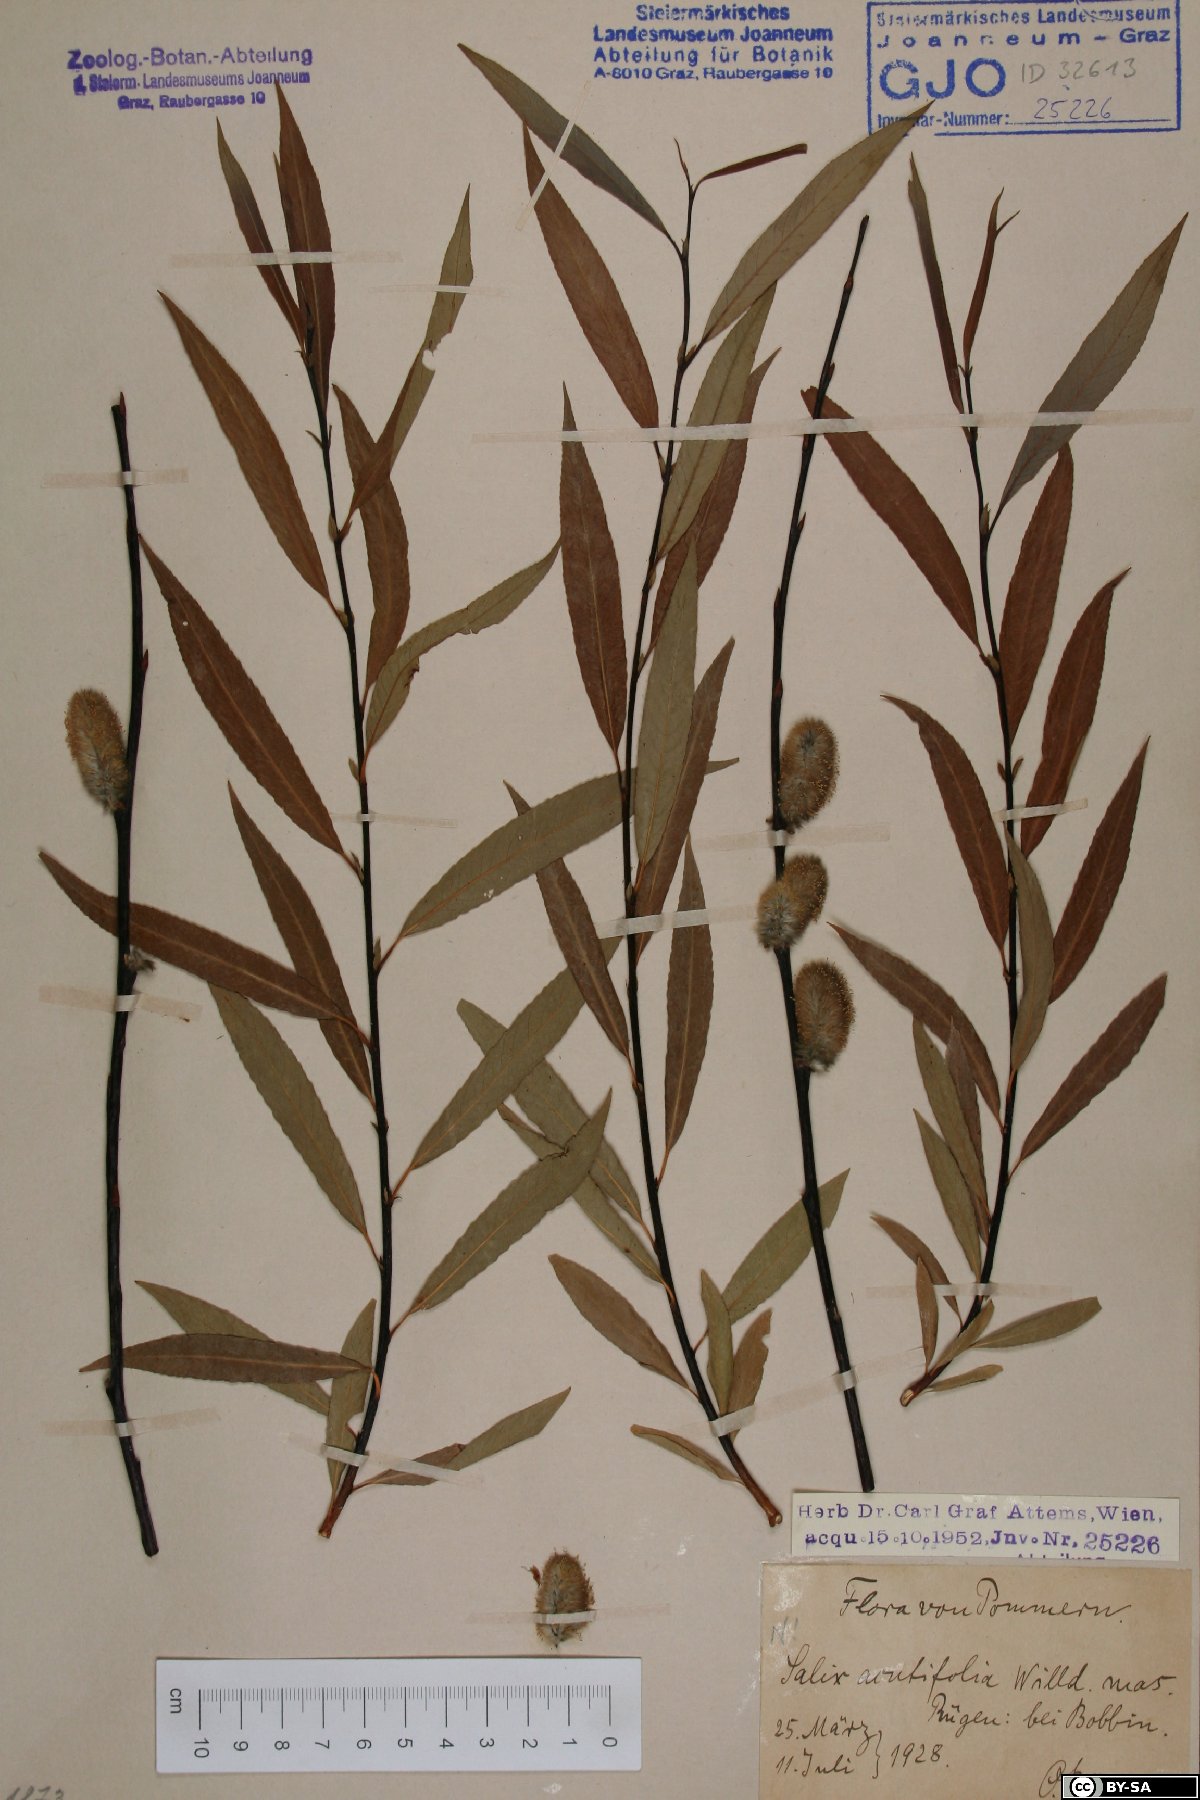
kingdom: Plantae
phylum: Tracheophyta
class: Magnoliopsida
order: Malpighiales
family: Salicaceae
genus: Salix
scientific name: Salix acutifolia
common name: Siberian violet-willow
